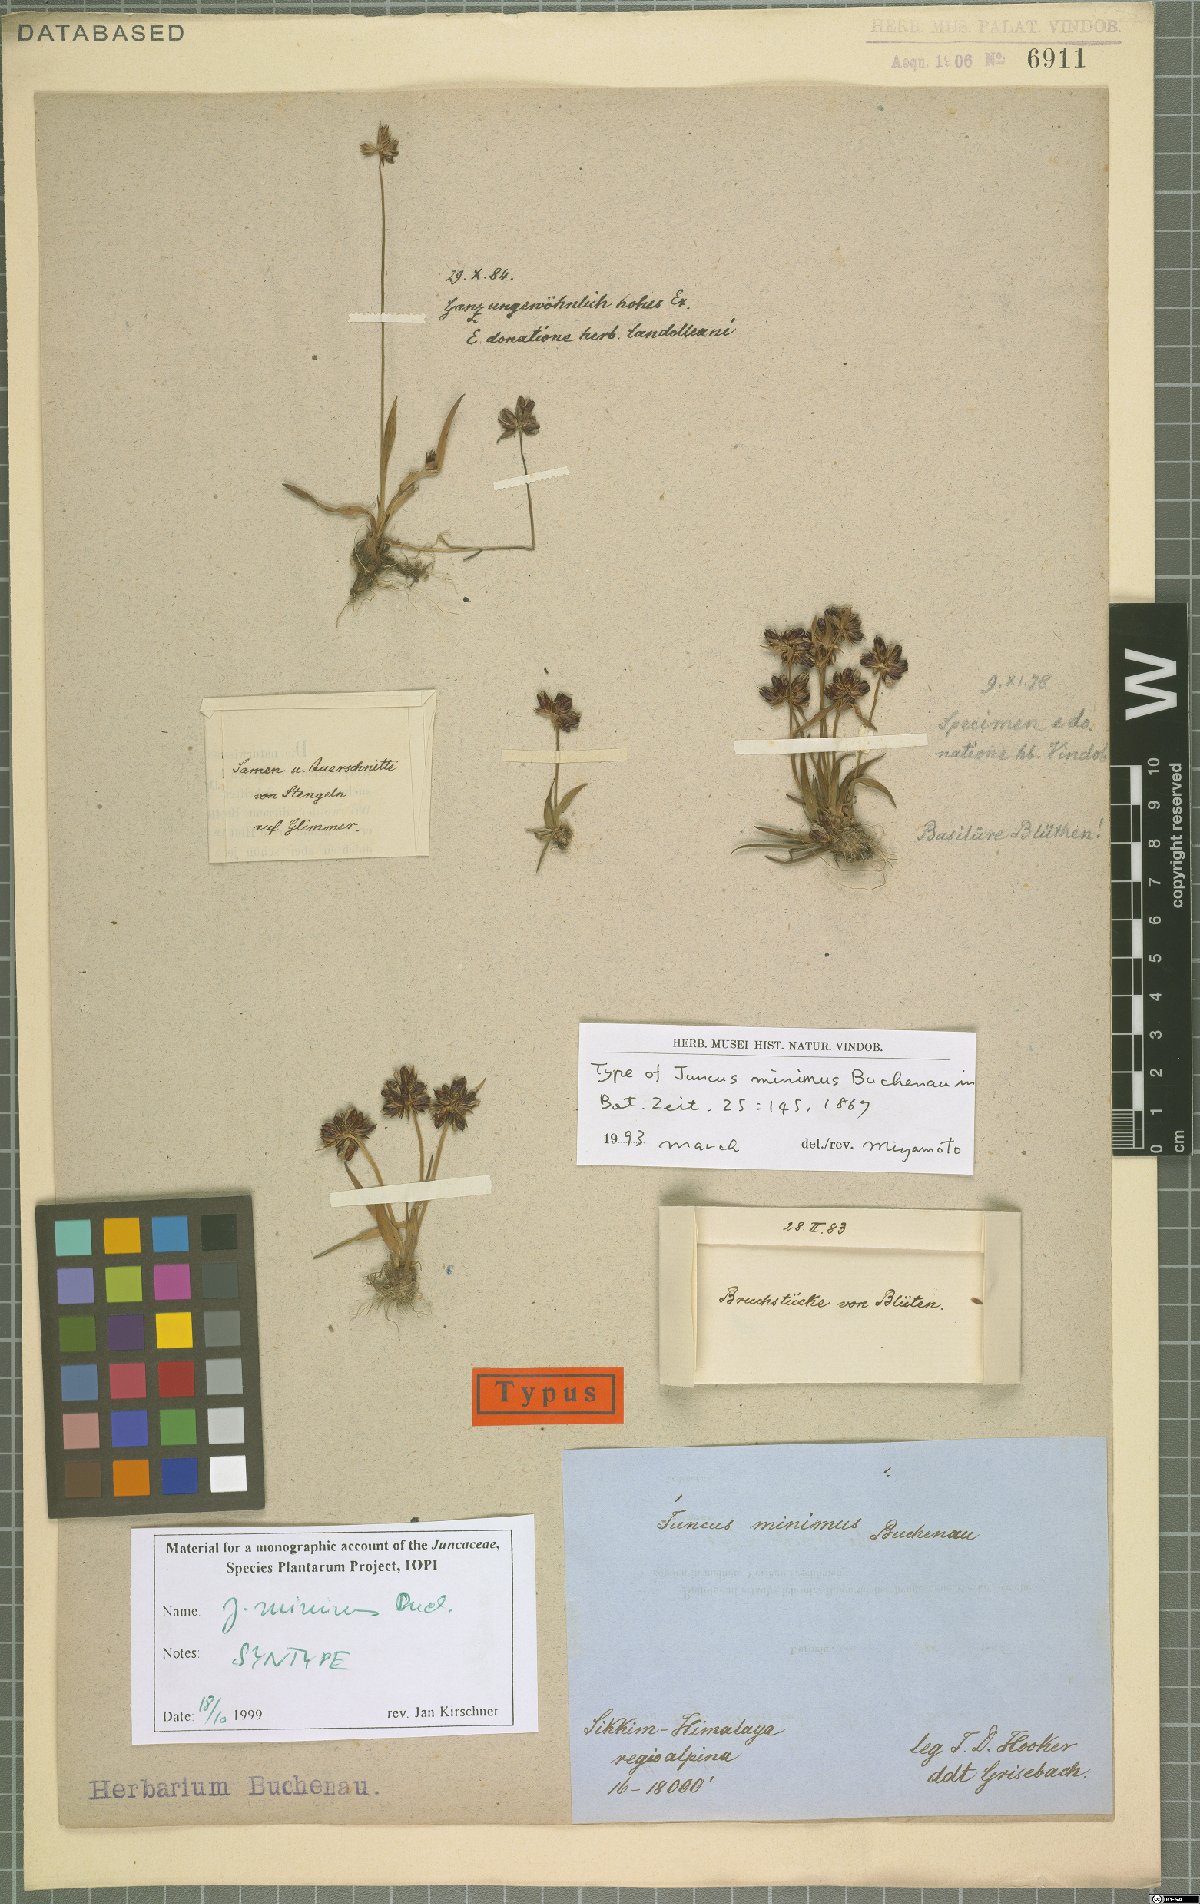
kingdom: Plantae
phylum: Tracheophyta
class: Liliopsida
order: Poales
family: Juncaceae
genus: Juncus
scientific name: Juncus minimus
